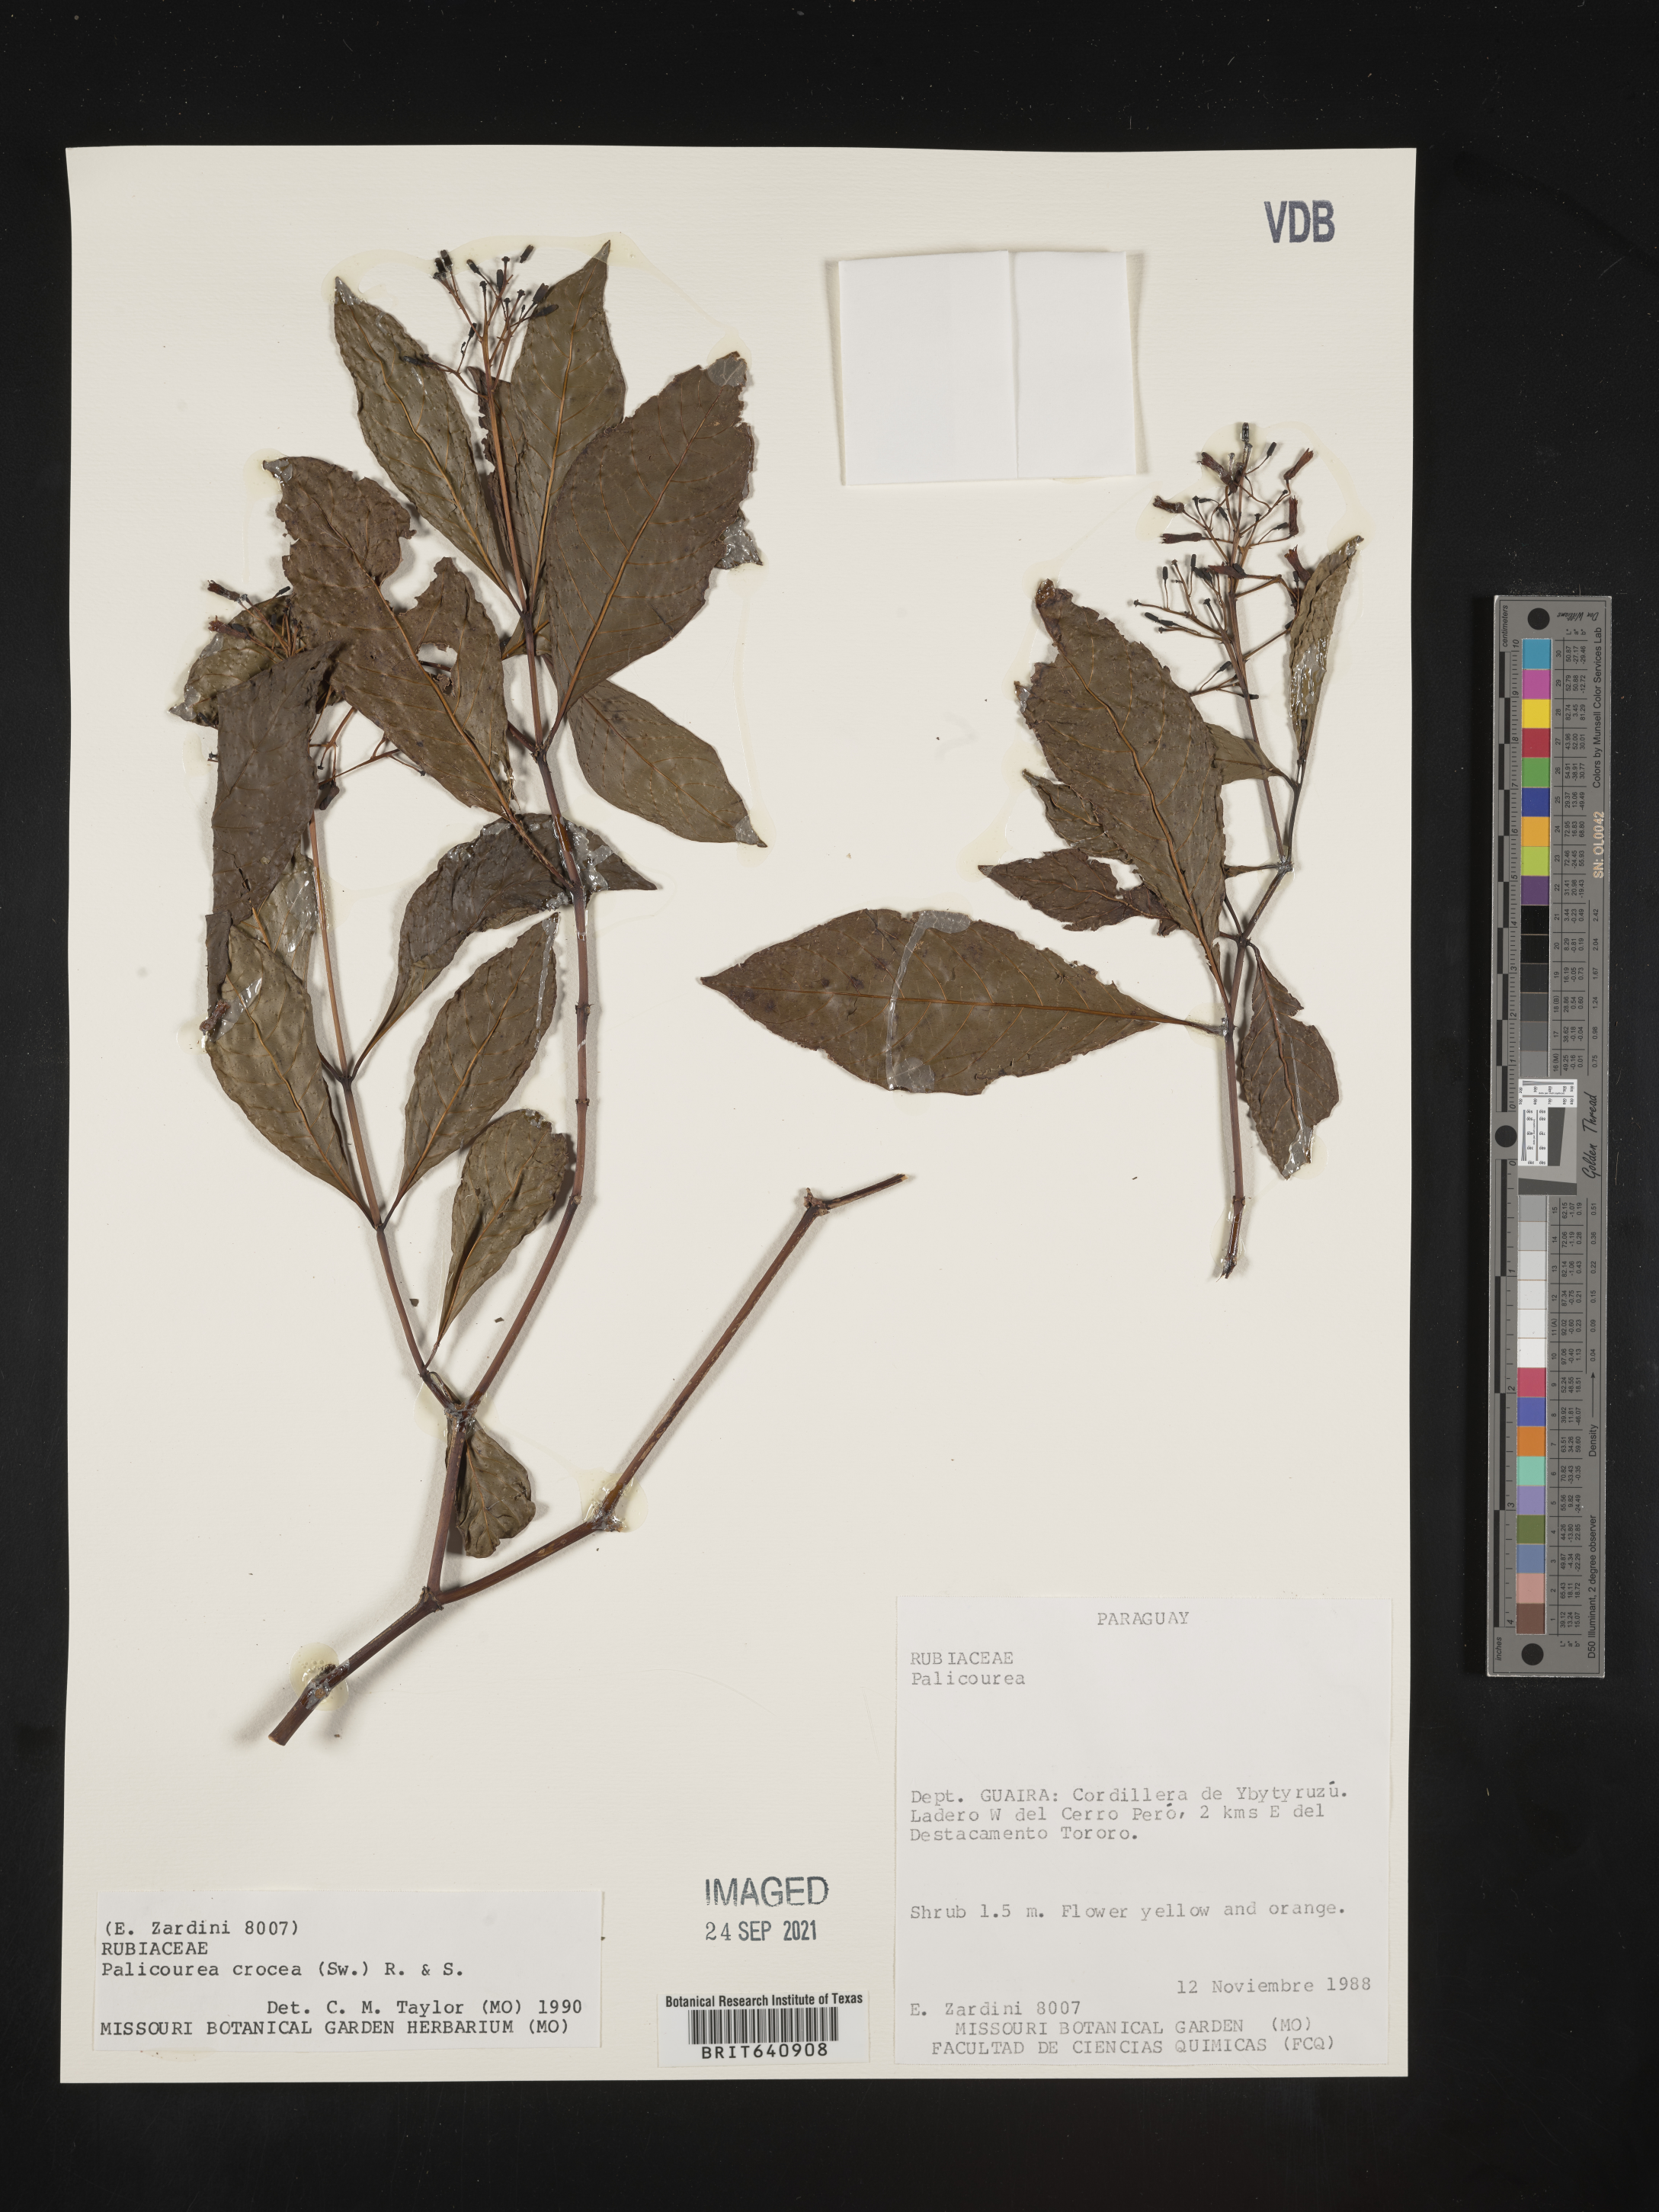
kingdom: Plantae
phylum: Tracheophyta
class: Magnoliopsida
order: Gentianales
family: Rubiaceae
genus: Palicourea
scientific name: Palicourea
